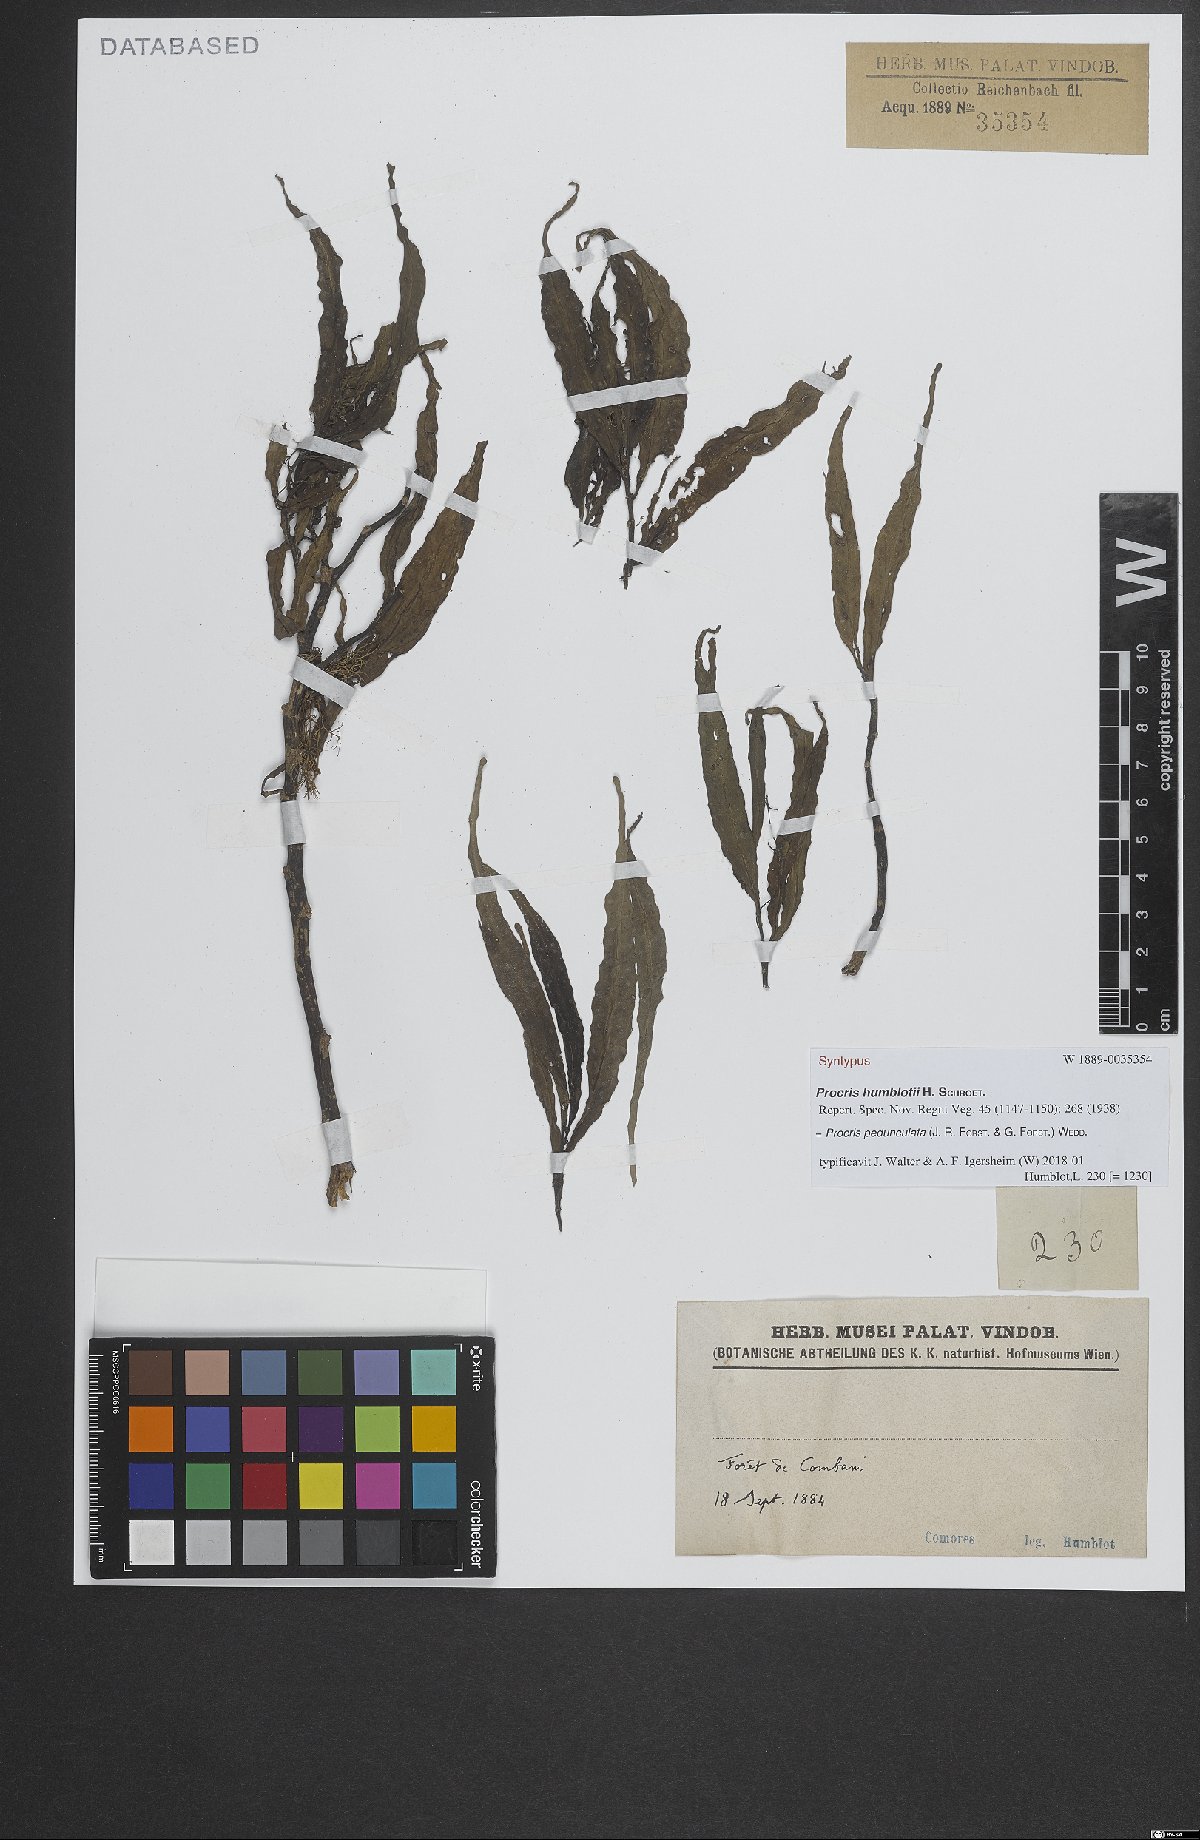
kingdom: Plantae
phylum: Tracheophyta
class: Magnoliopsida
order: Rosales
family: Urticaceae
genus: Procris
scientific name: Procris pedunculata
